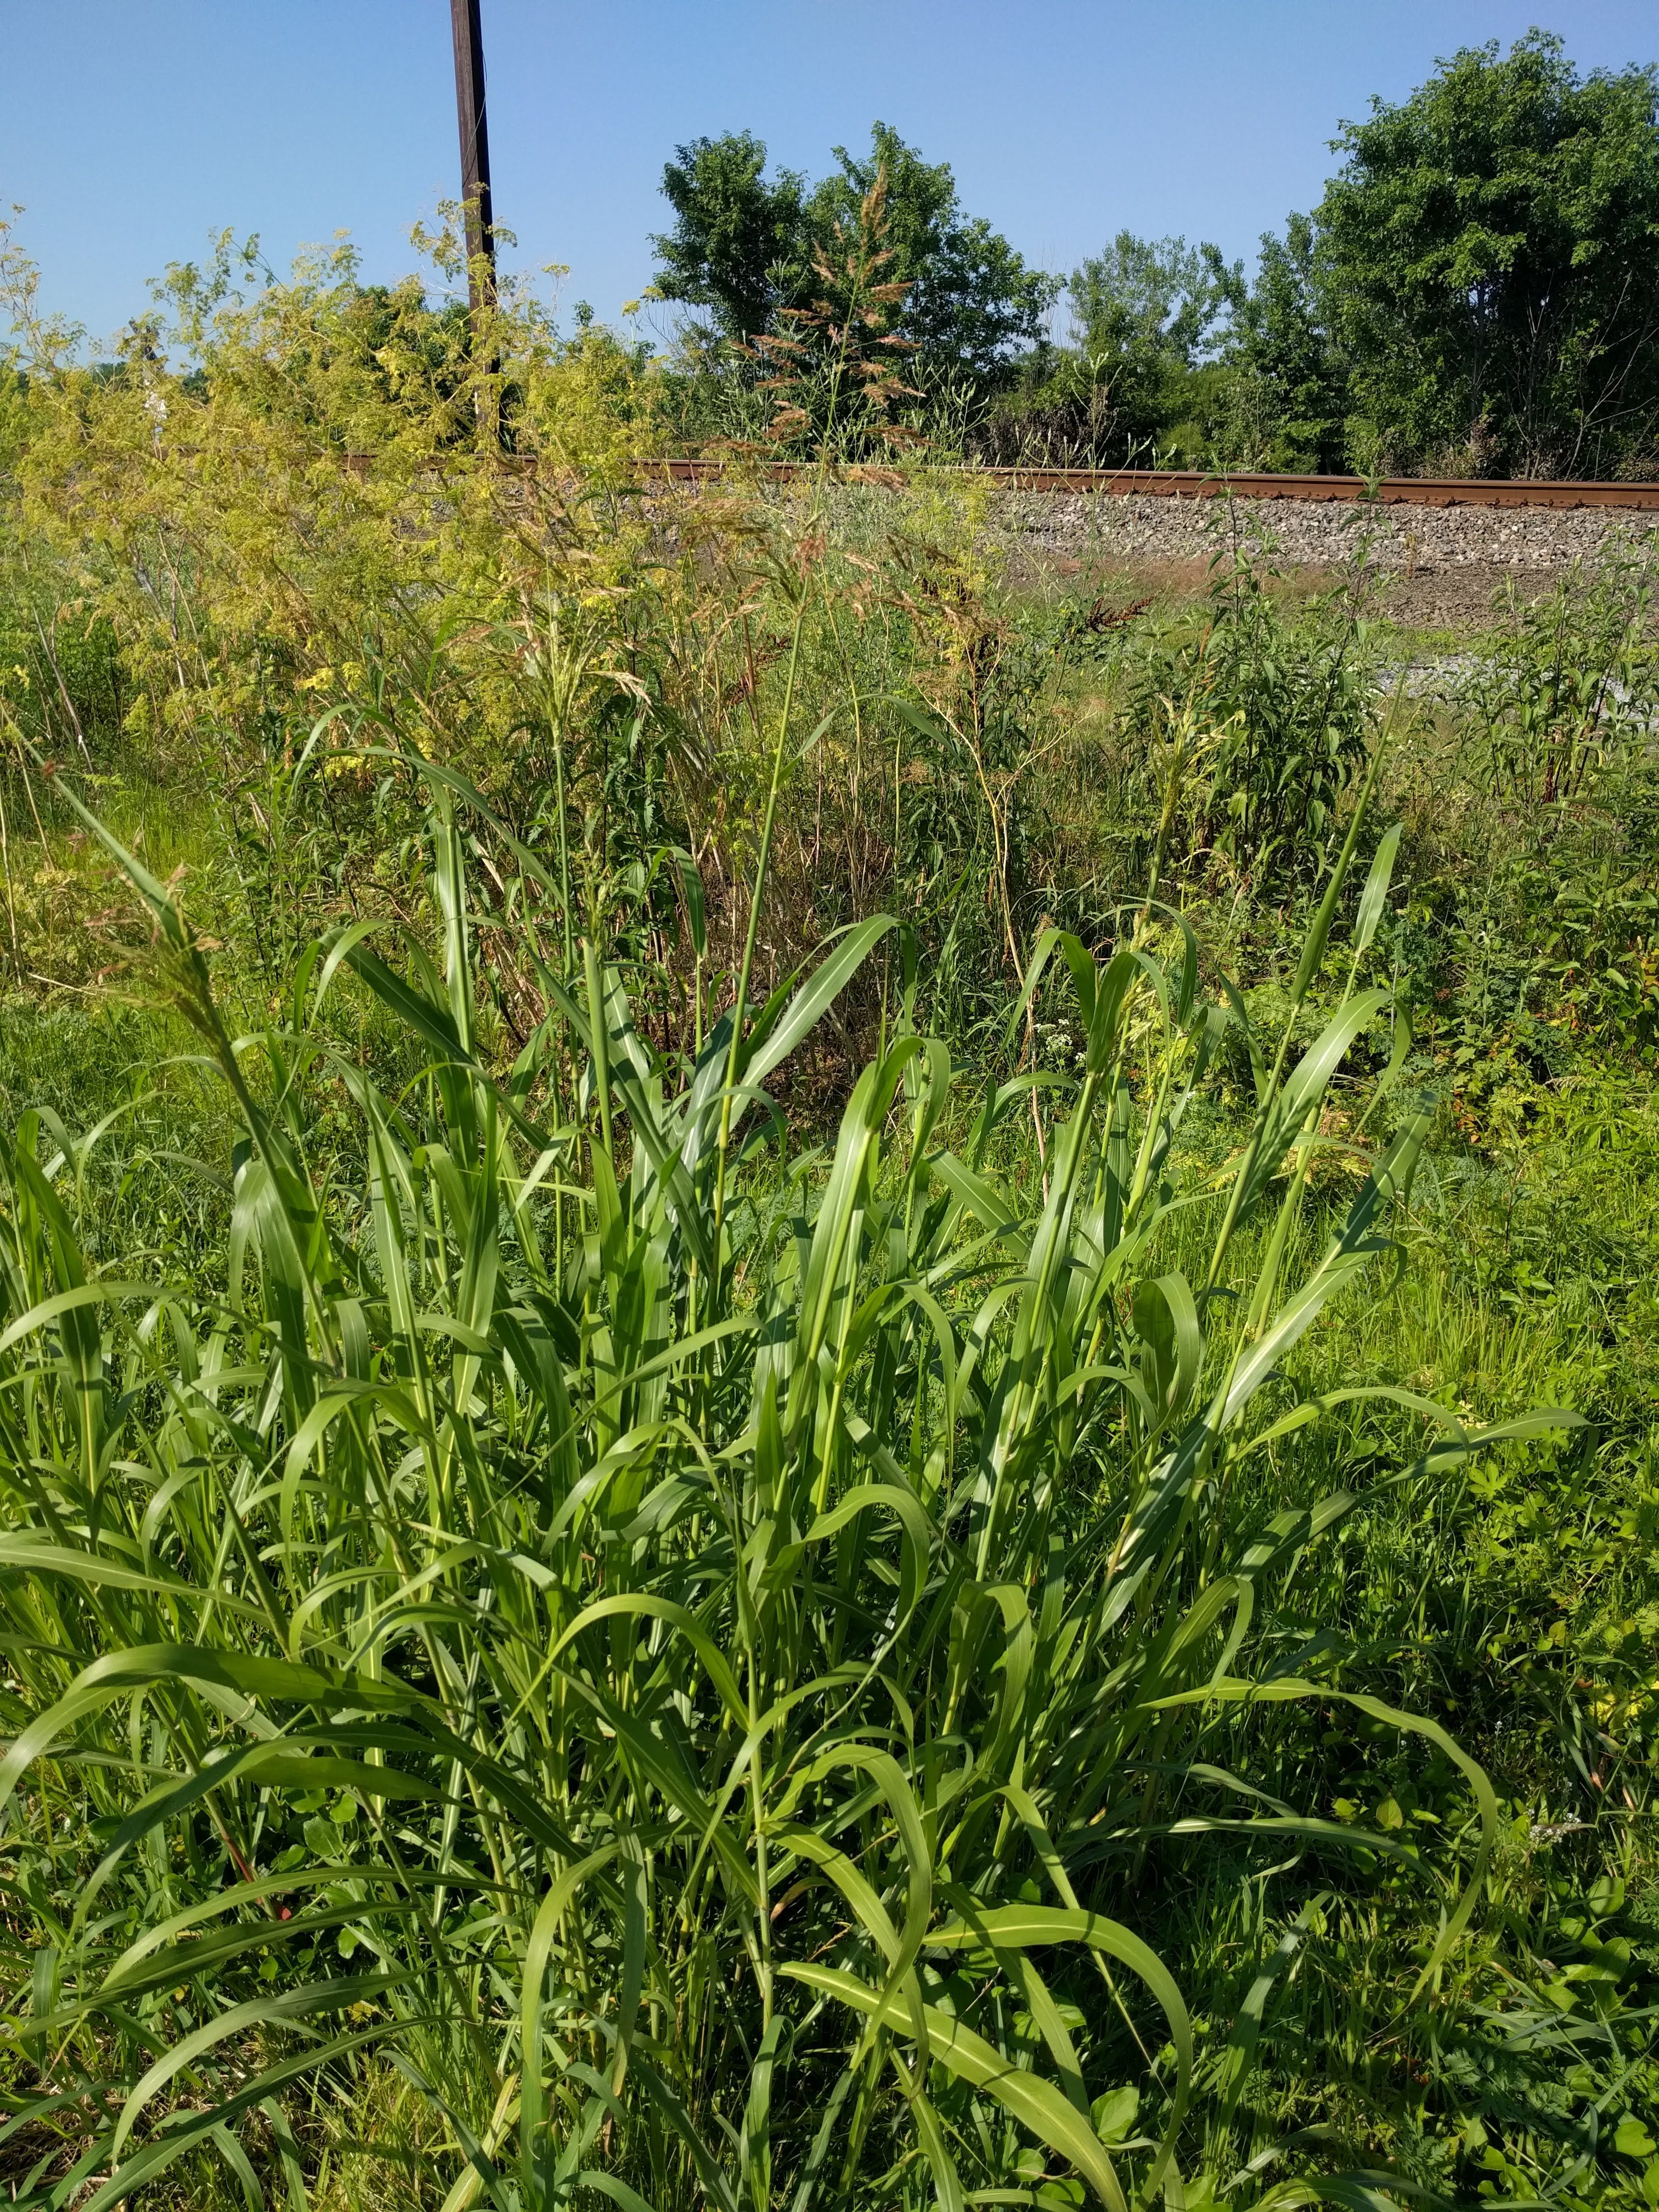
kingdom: Plantae
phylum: Tracheophyta
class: Liliopsida
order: Poales
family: Poaceae
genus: Sorghum
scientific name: Sorghum halepense
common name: Johnson-grass
